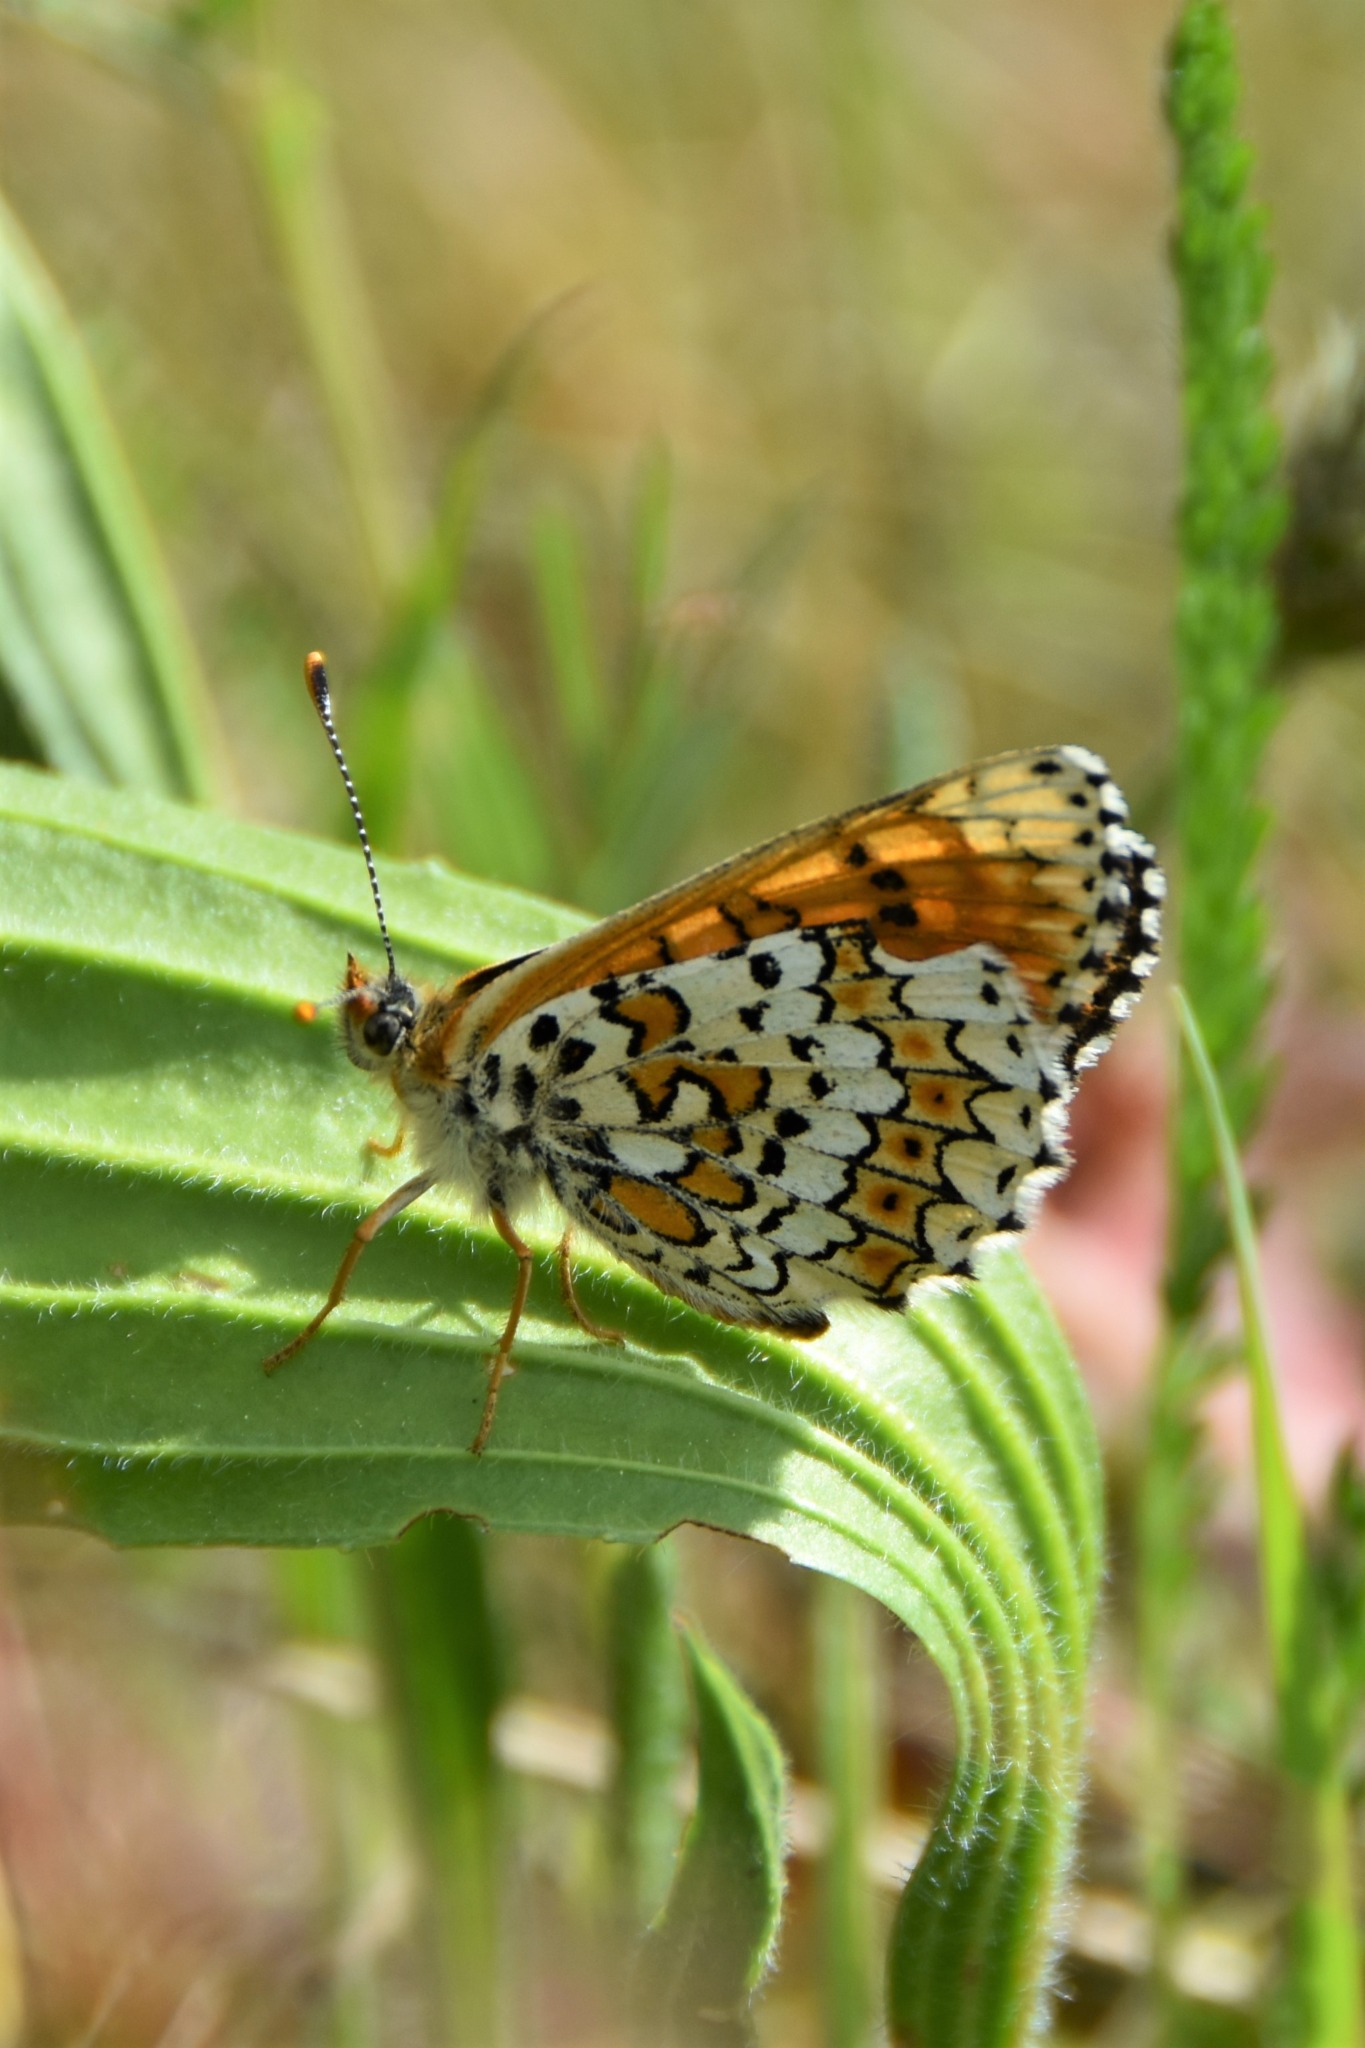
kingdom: Animalia
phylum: Arthropoda
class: Insecta
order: Lepidoptera
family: Nymphalidae
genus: Melitaea
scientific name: Melitaea cinxia
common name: Okkergul pletvinge
